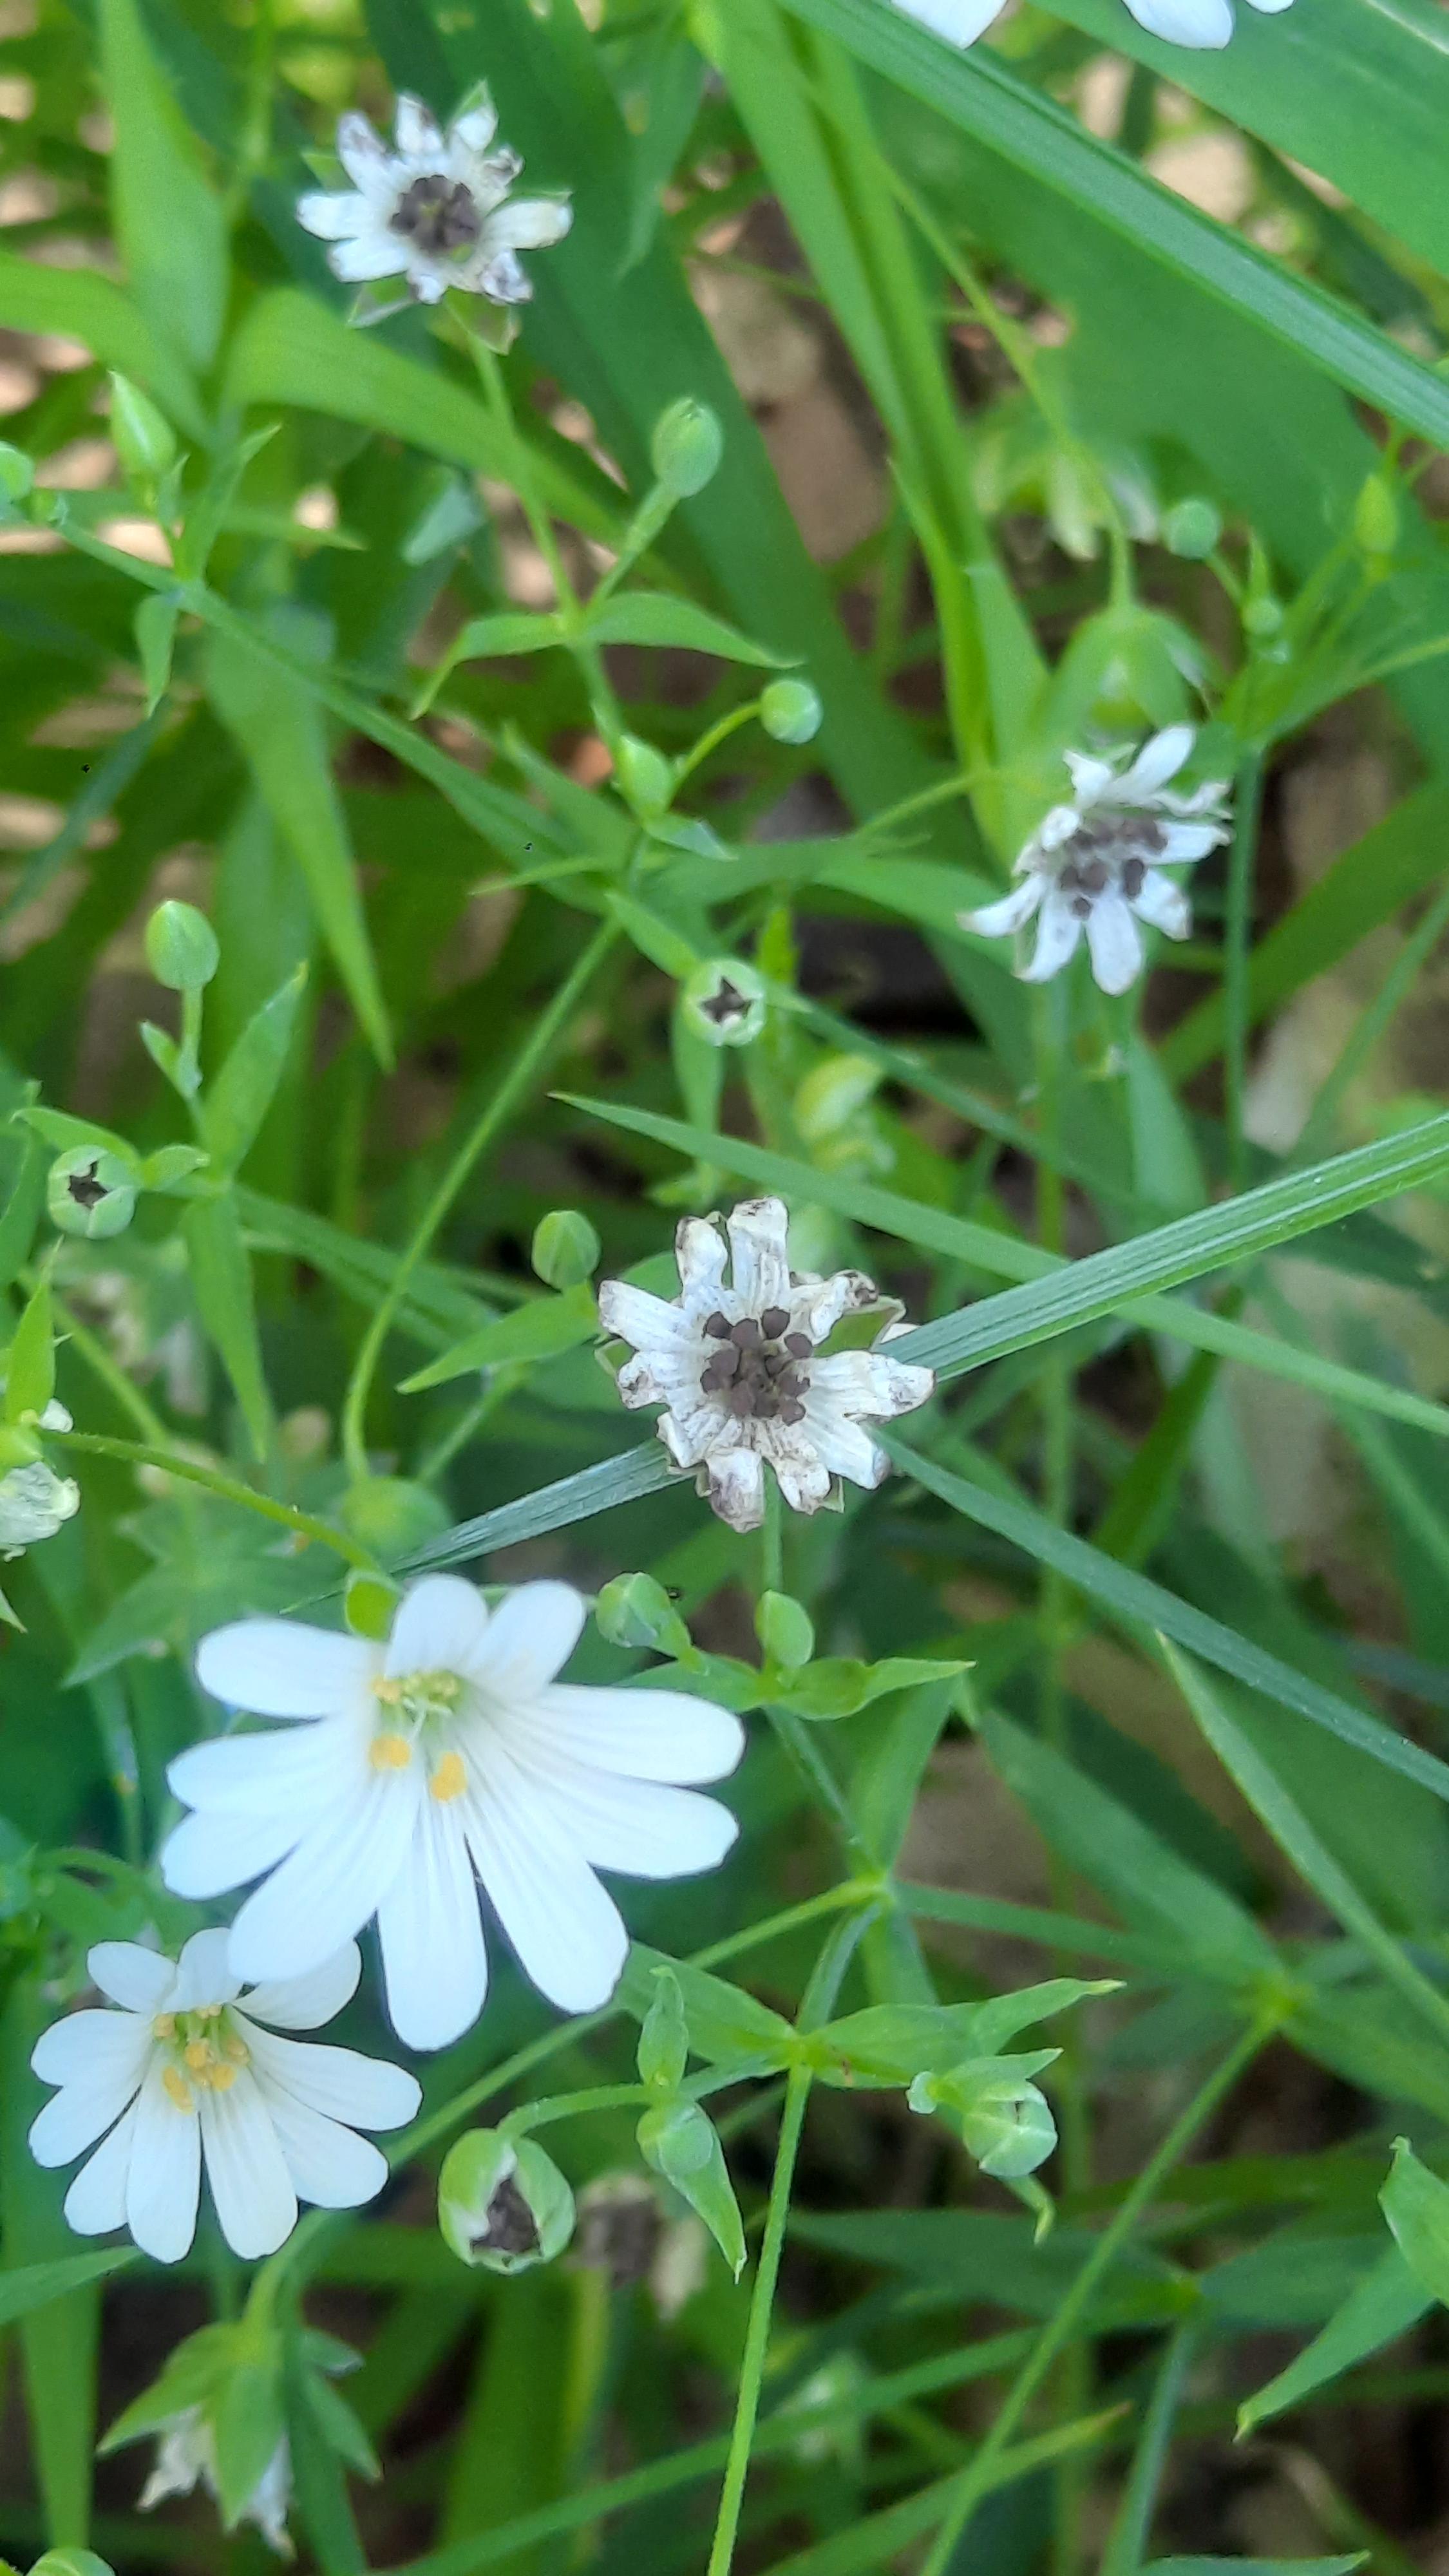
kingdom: Fungi
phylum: Basidiomycota
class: Microbotryomycetes
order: Microbotryales
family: Microbotryaceae
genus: Microbotryum
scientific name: Microbotryum stellariae
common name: fladstjerne-støvbladrust
